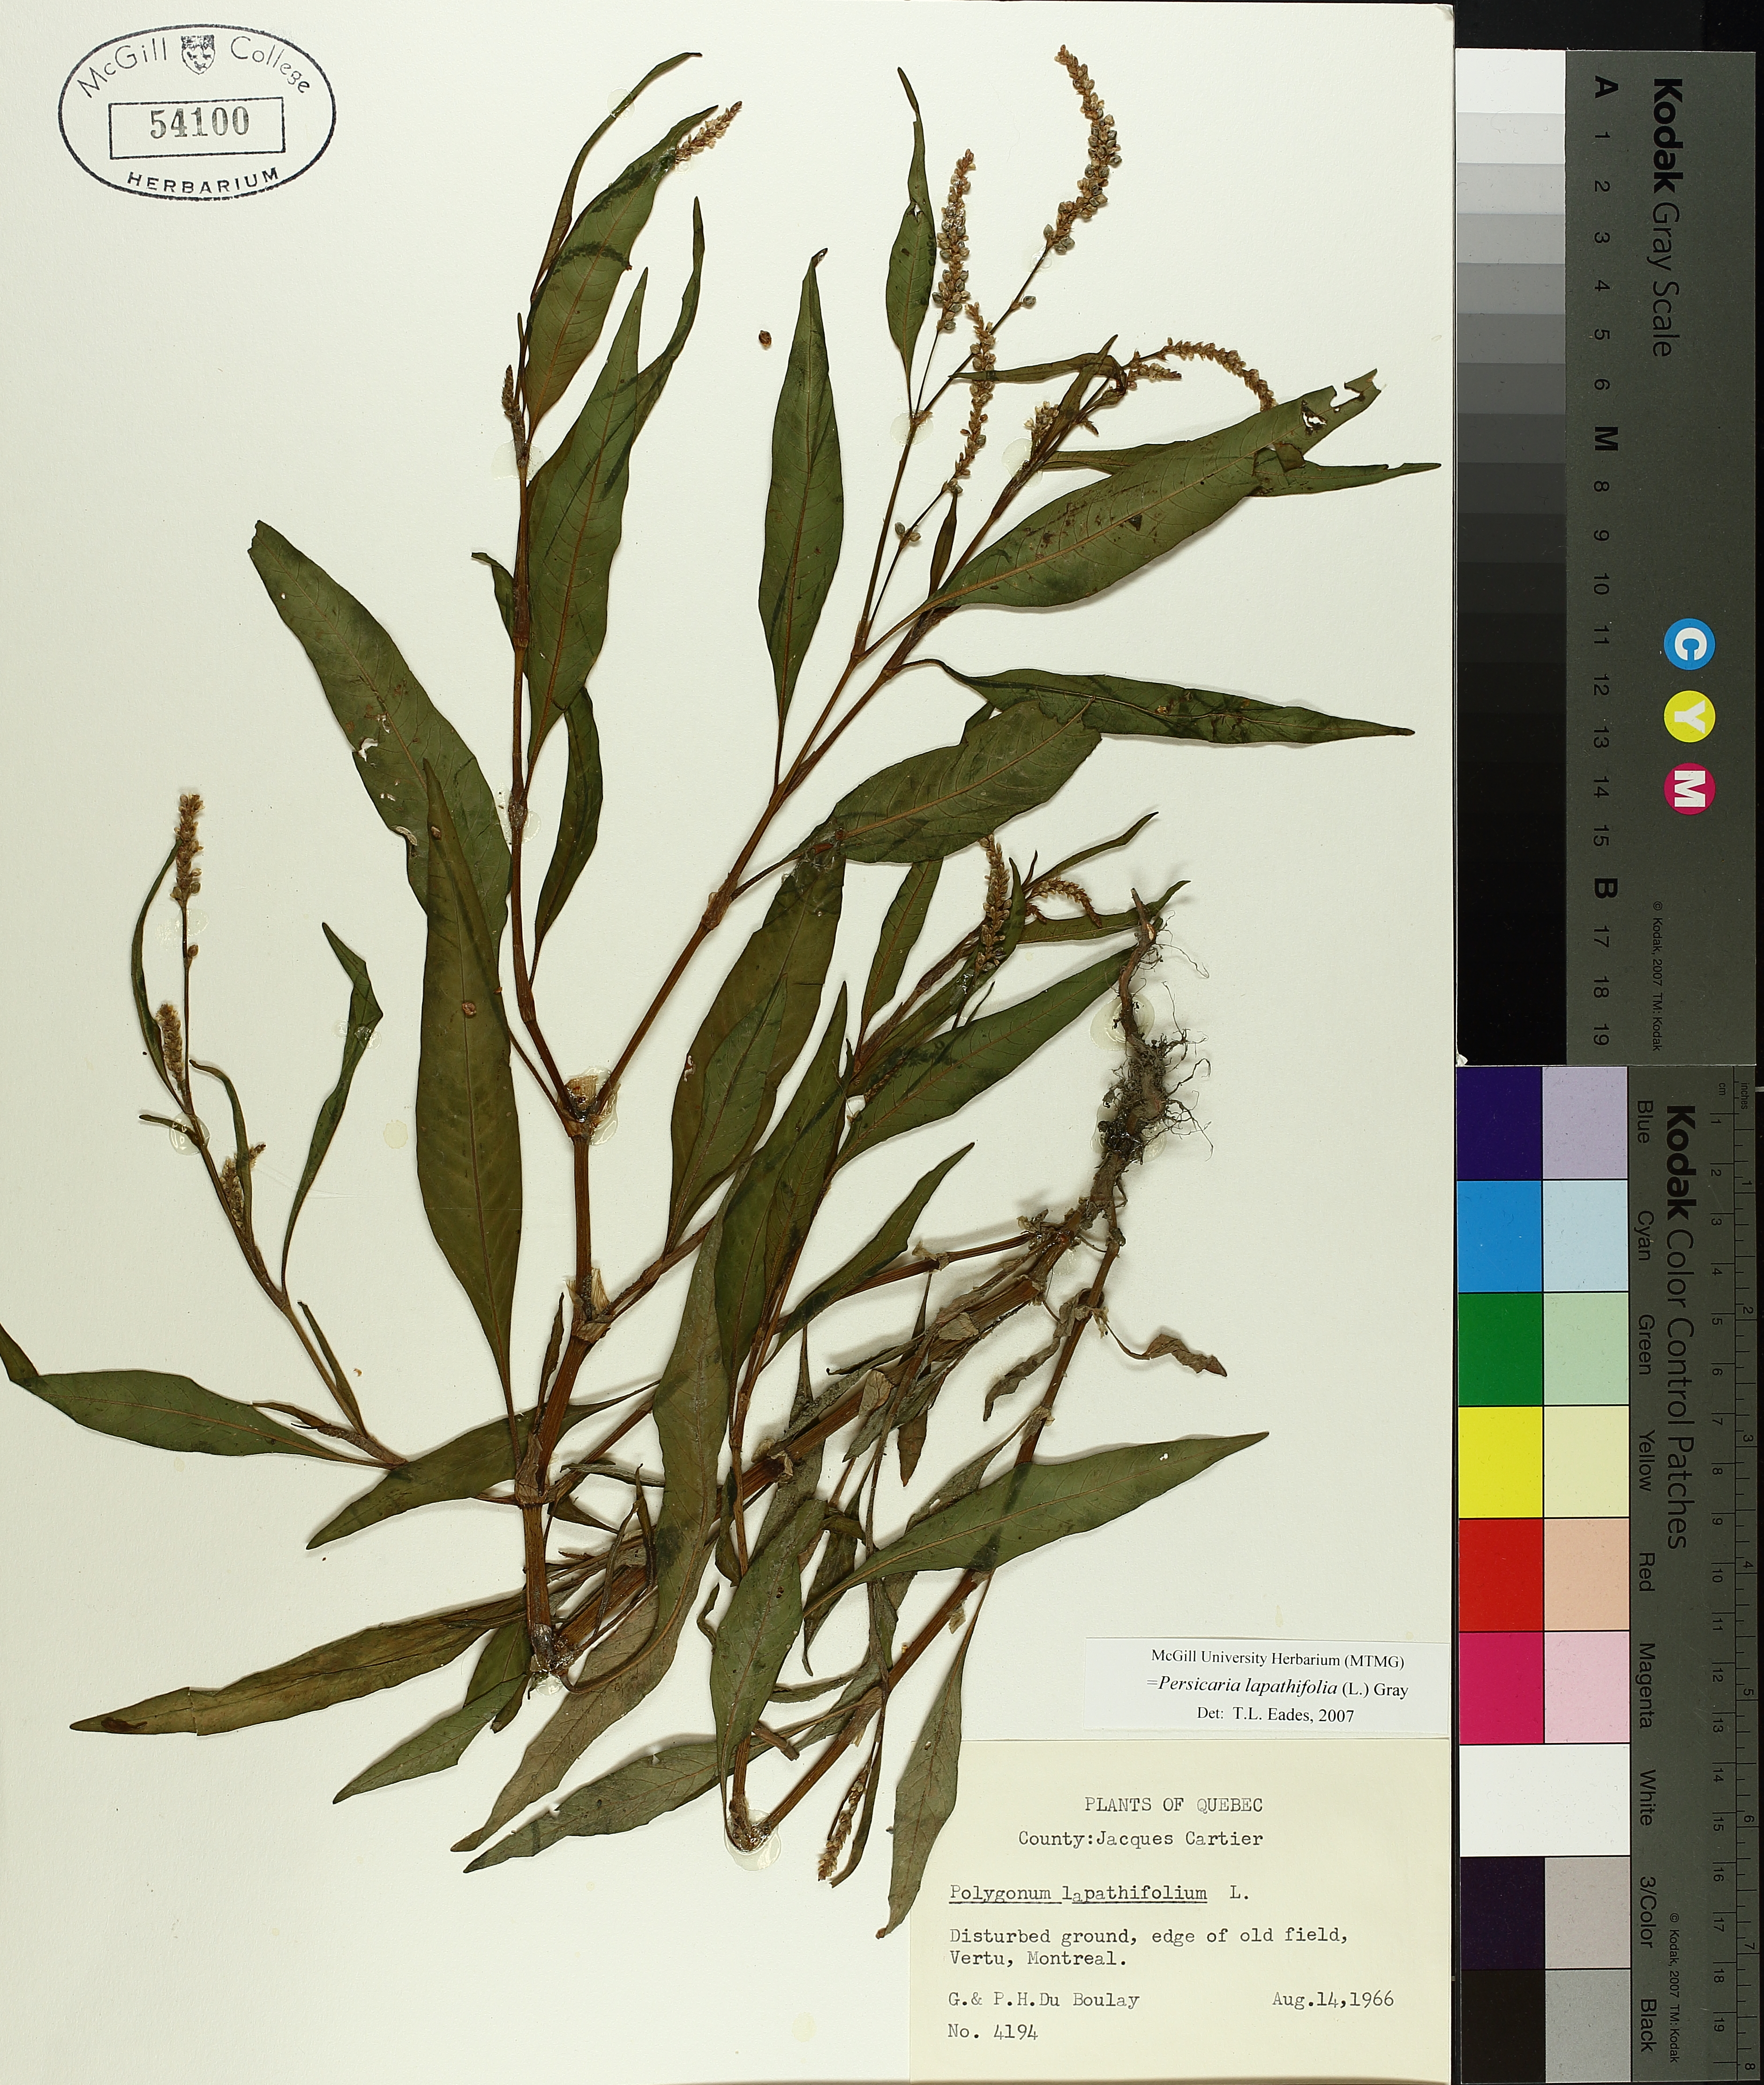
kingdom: Plantae
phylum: Tracheophyta
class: Magnoliopsida
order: Caryophyllales
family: Polygonaceae
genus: Persicaria
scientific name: Persicaria lapathifolia
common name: Curlytop knotweed
